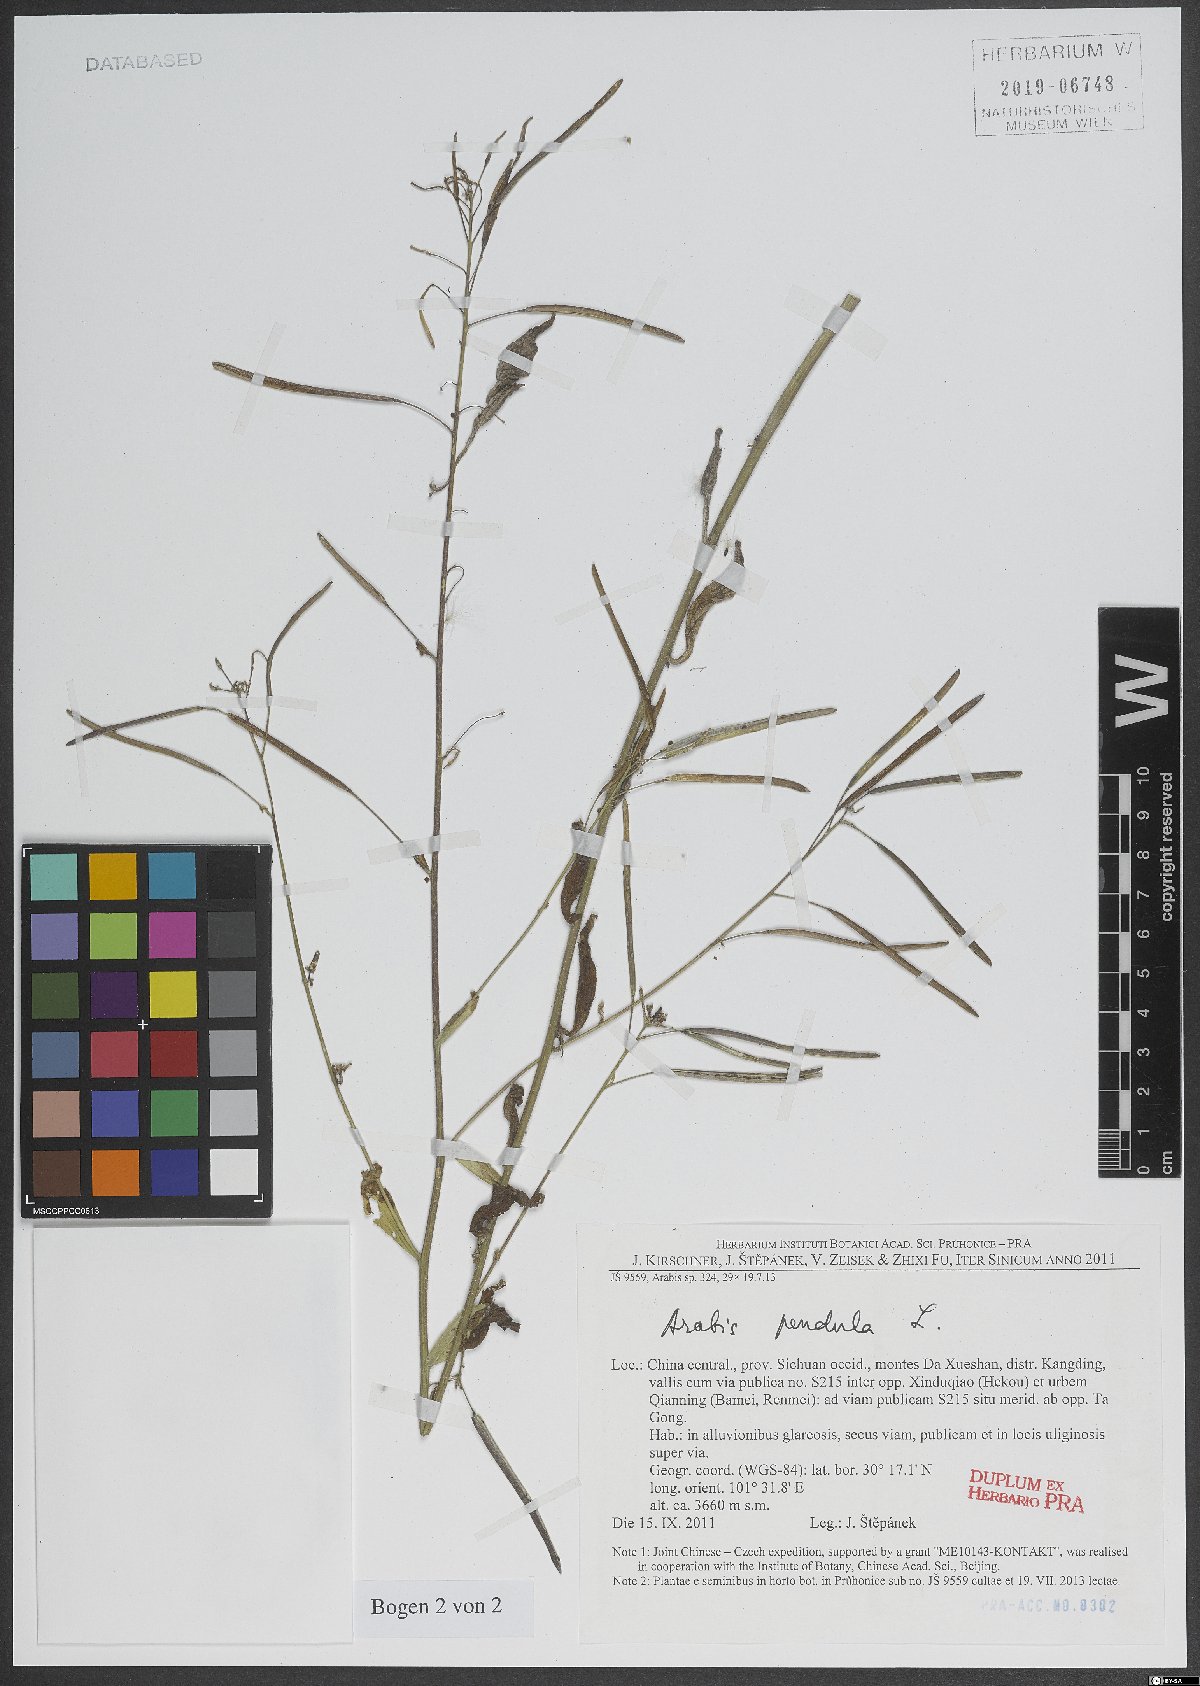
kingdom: Plantae
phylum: Tracheophyta
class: Magnoliopsida
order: Brassicales
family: Brassicaceae
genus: Catolobus
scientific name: Catolobus pendulus
